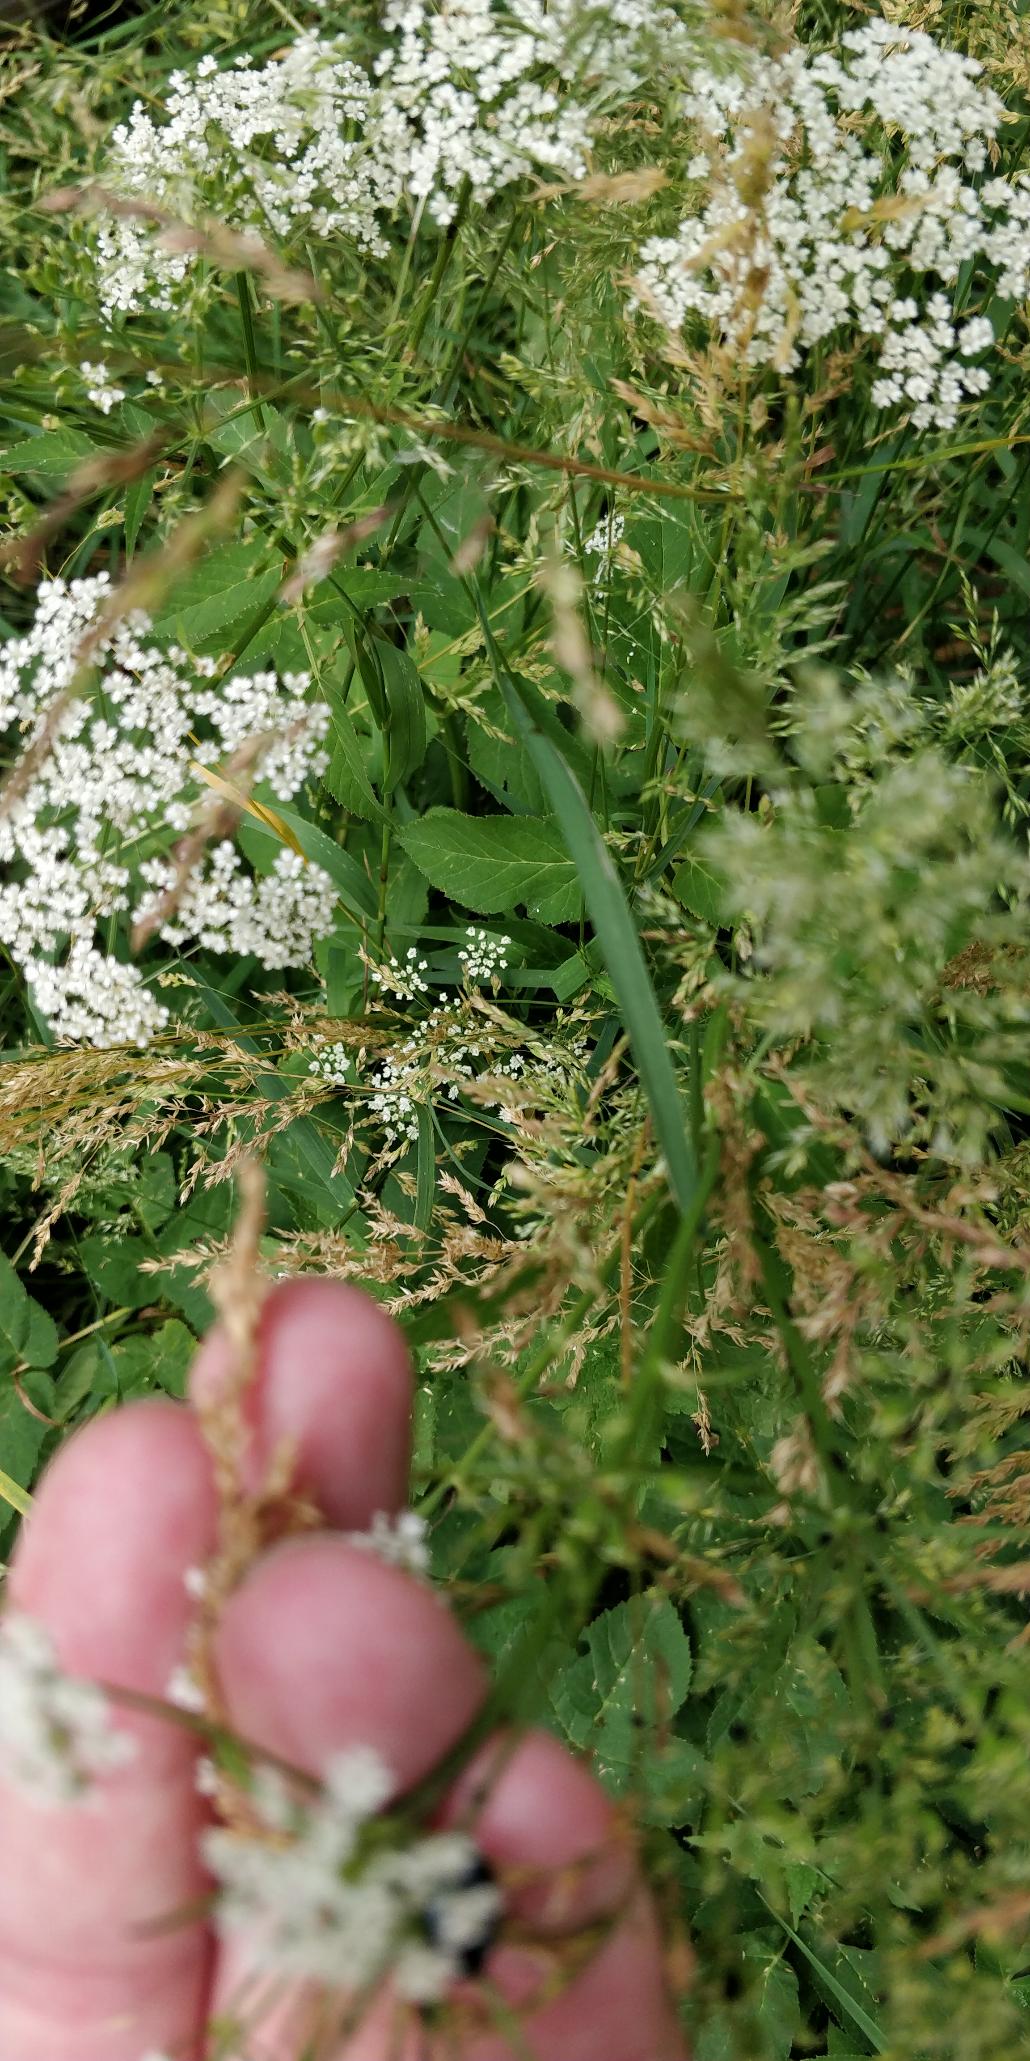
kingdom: Plantae
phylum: Tracheophyta
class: Magnoliopsida
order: Apiales
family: Apiaceae
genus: Aegopodium
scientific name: Aegopodium podagraria
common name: Skvalderkål
